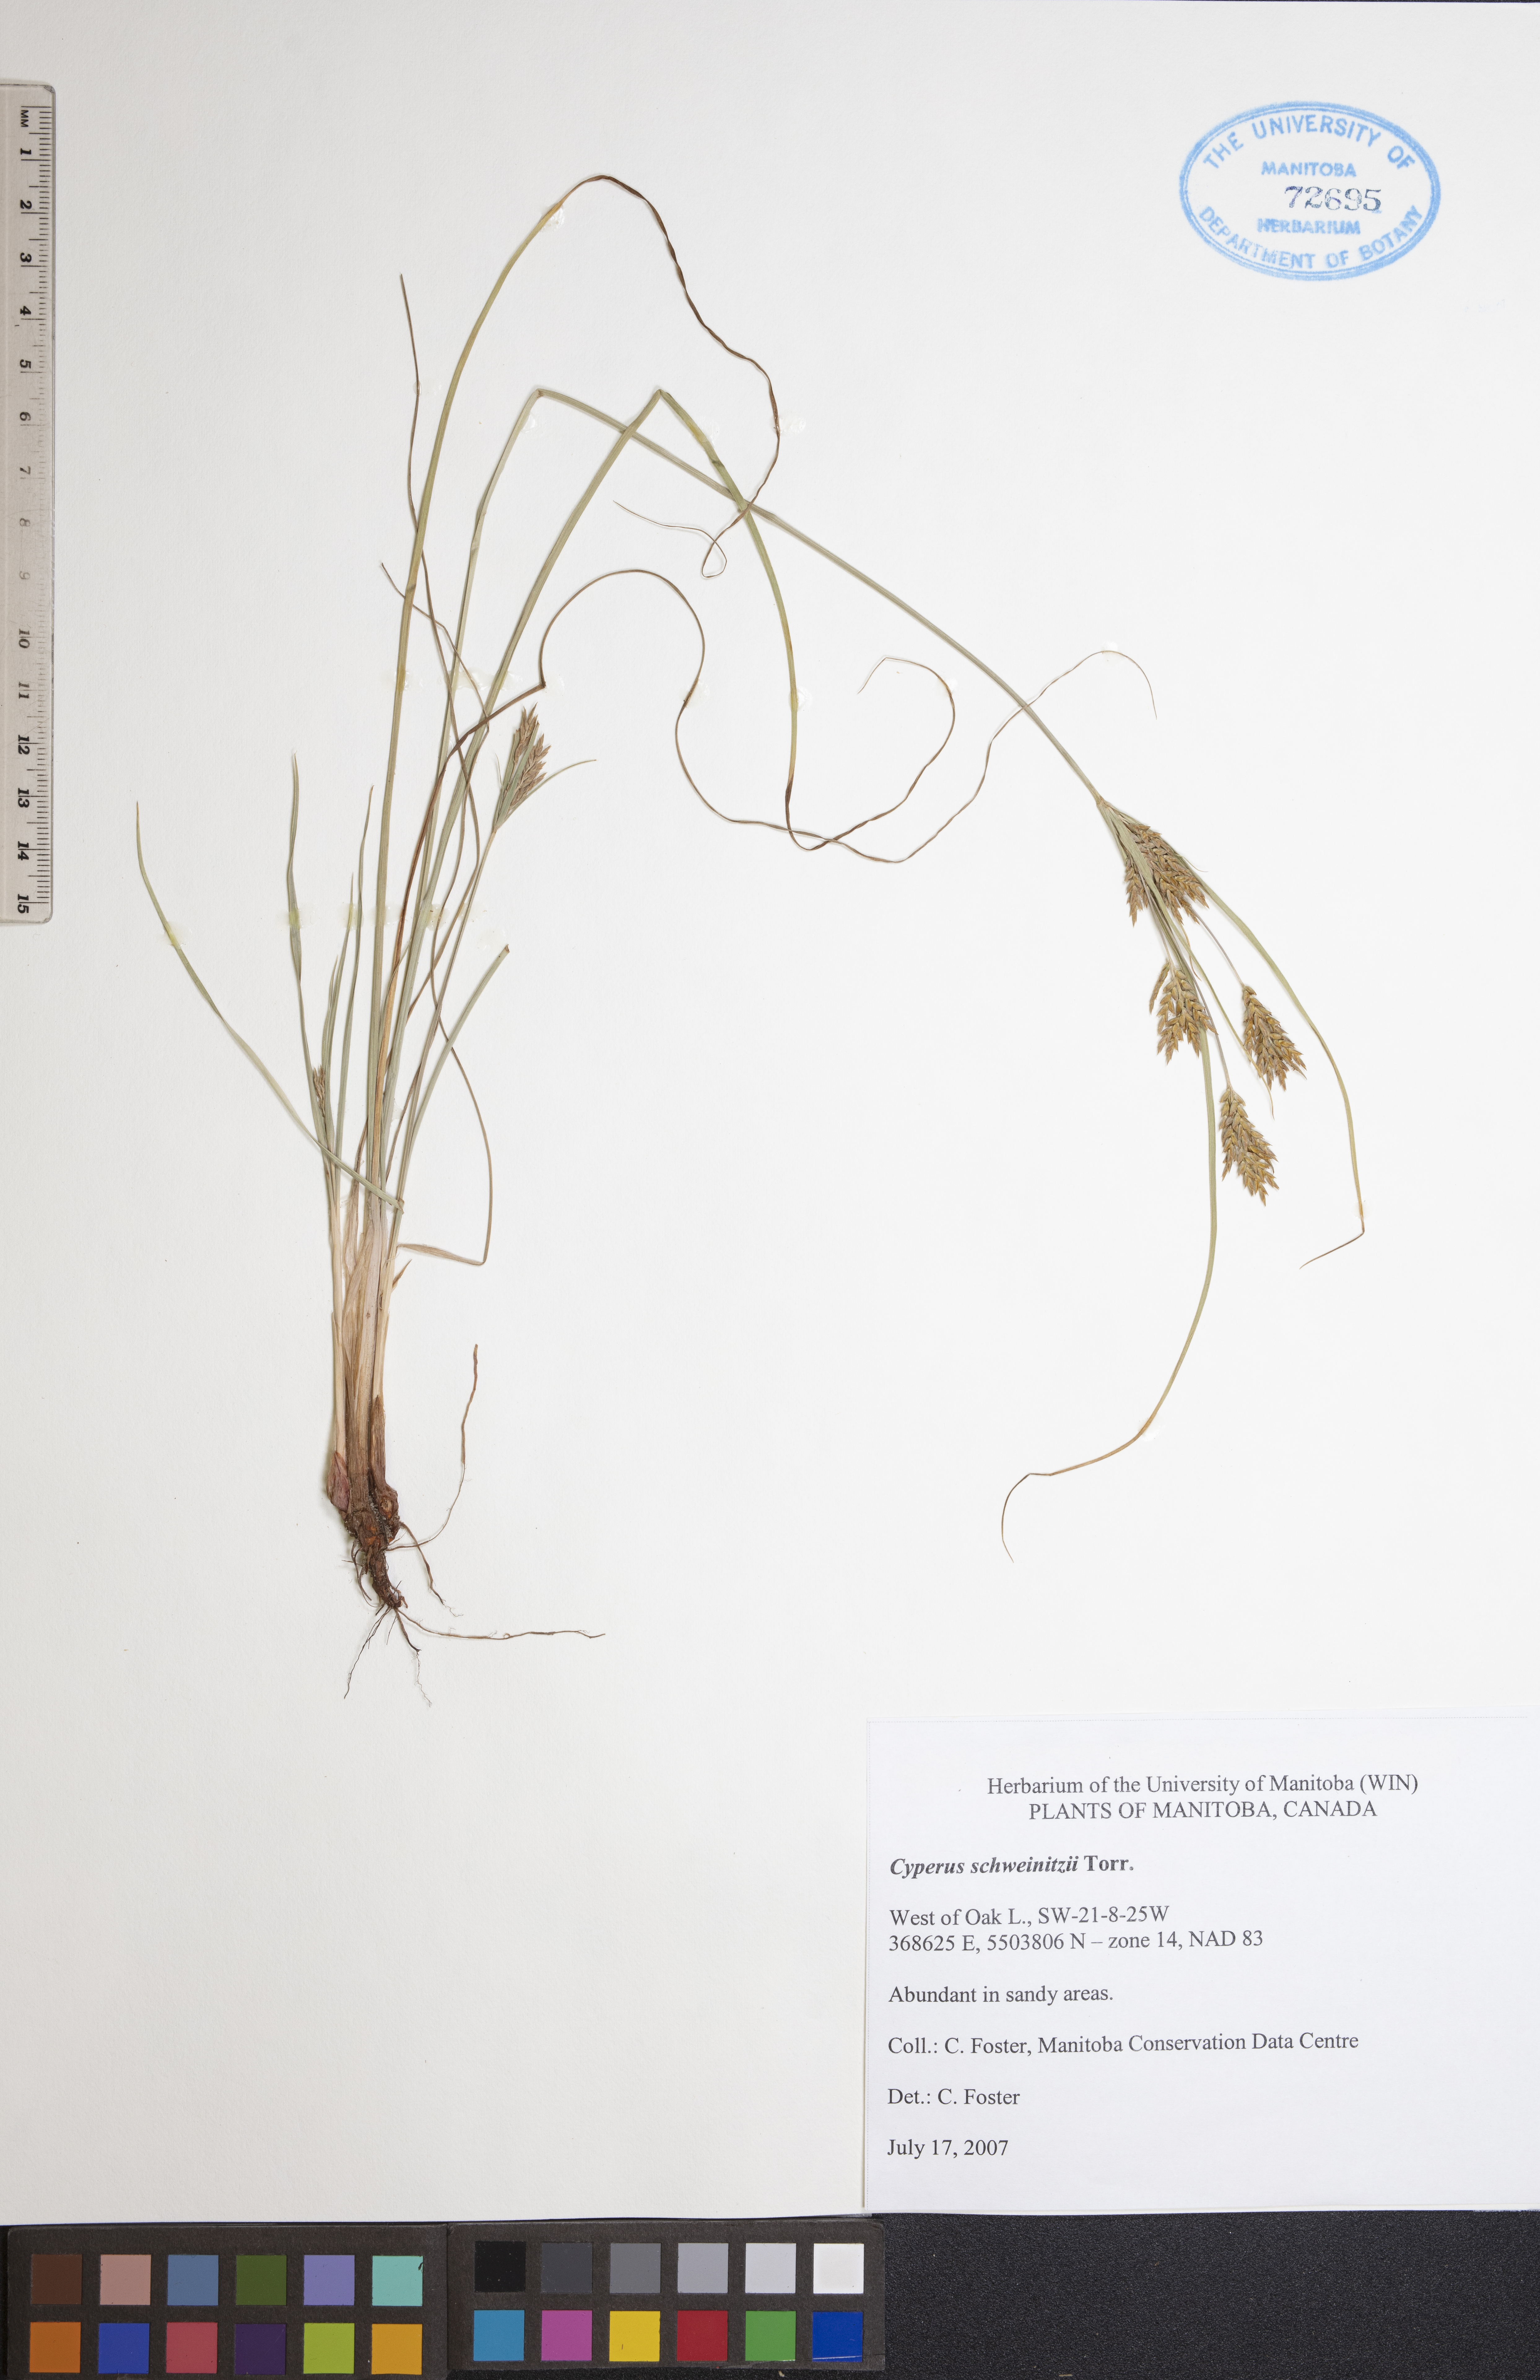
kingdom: Plantae
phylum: Tracheophyta
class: Liliopsida
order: Poales
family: Cyperaceae
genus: Cyperus
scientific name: Cyperus schweinitzii
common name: Schweinitz's cyperus
